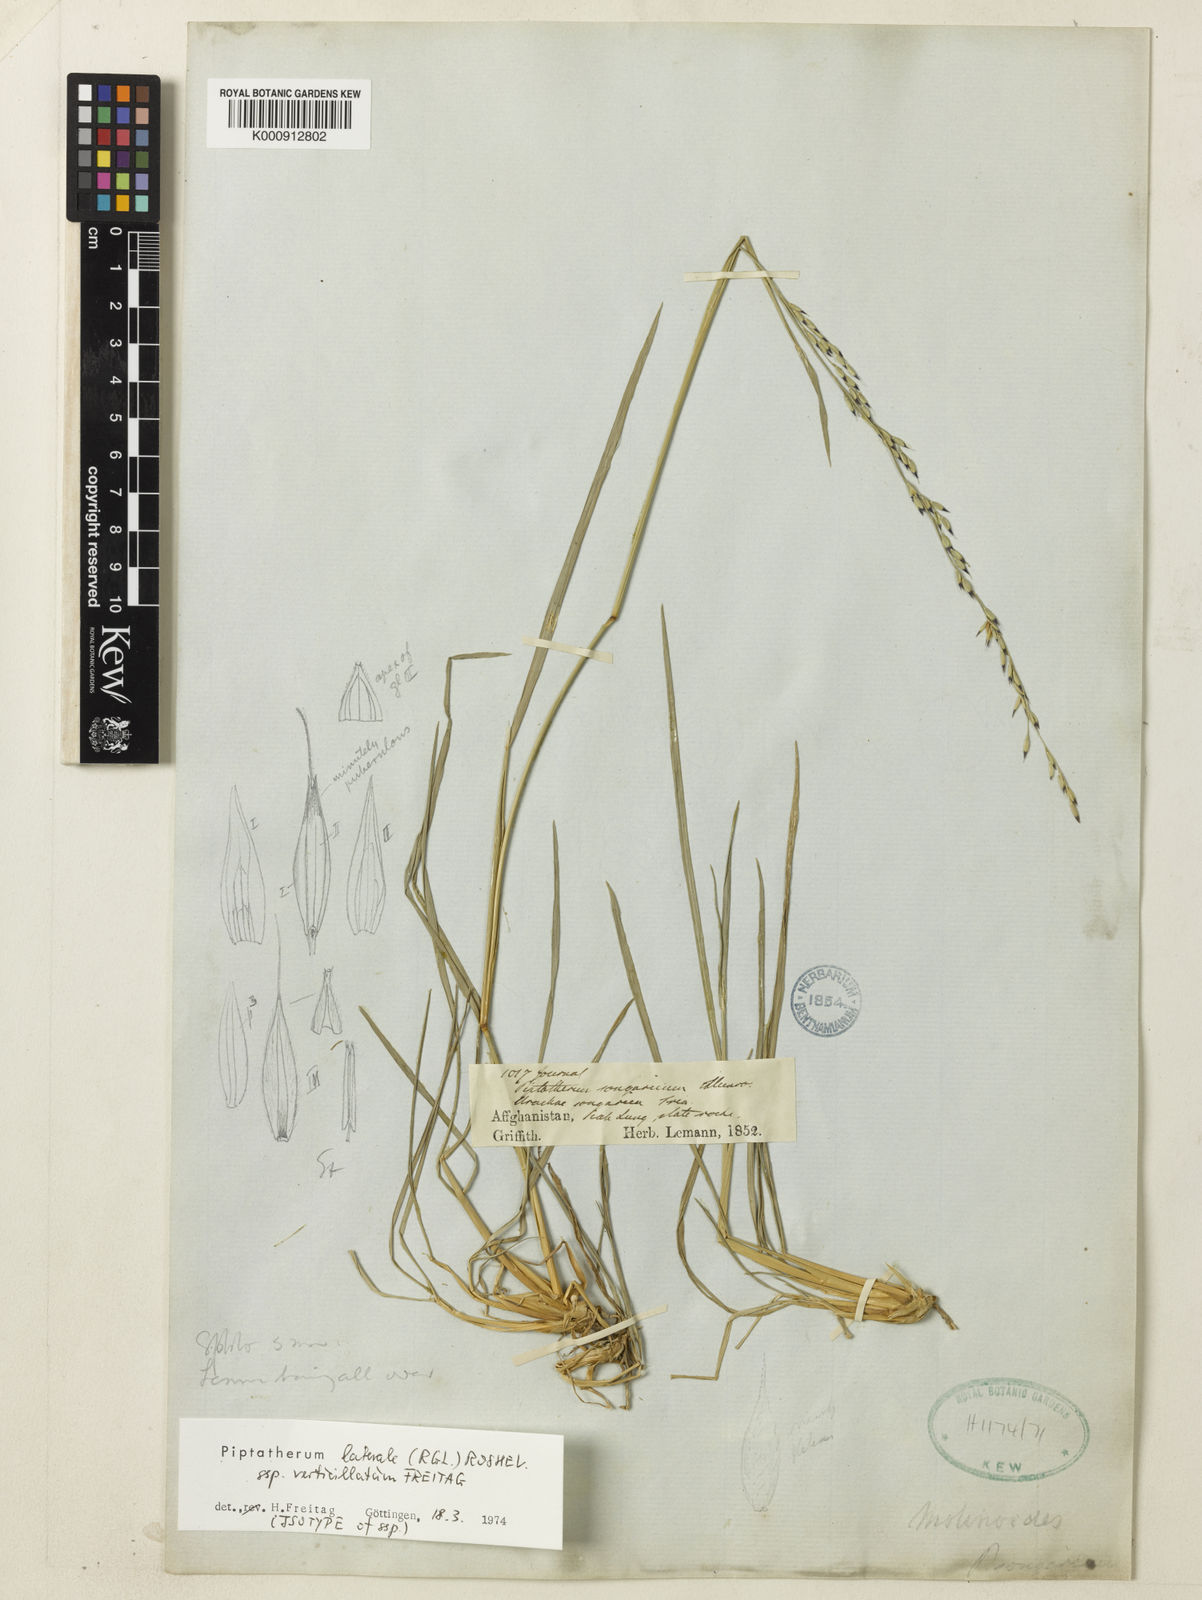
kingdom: Plantae
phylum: Tracheophyta
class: Liliopsida
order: Poales
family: Poaceae
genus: Piptatherum
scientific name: Piptatherum laterale
